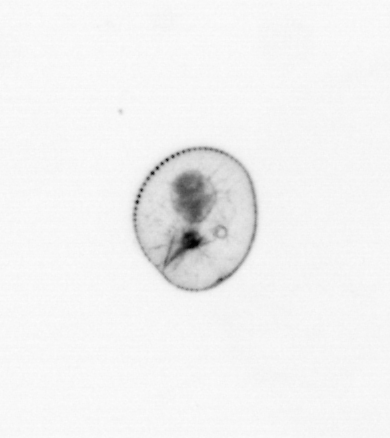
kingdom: Chromista
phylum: Myzozoa
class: Dinophyceae
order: Noctilucales
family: Noctilucaceae
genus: Noctiluca
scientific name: Noctiluca scintillans
